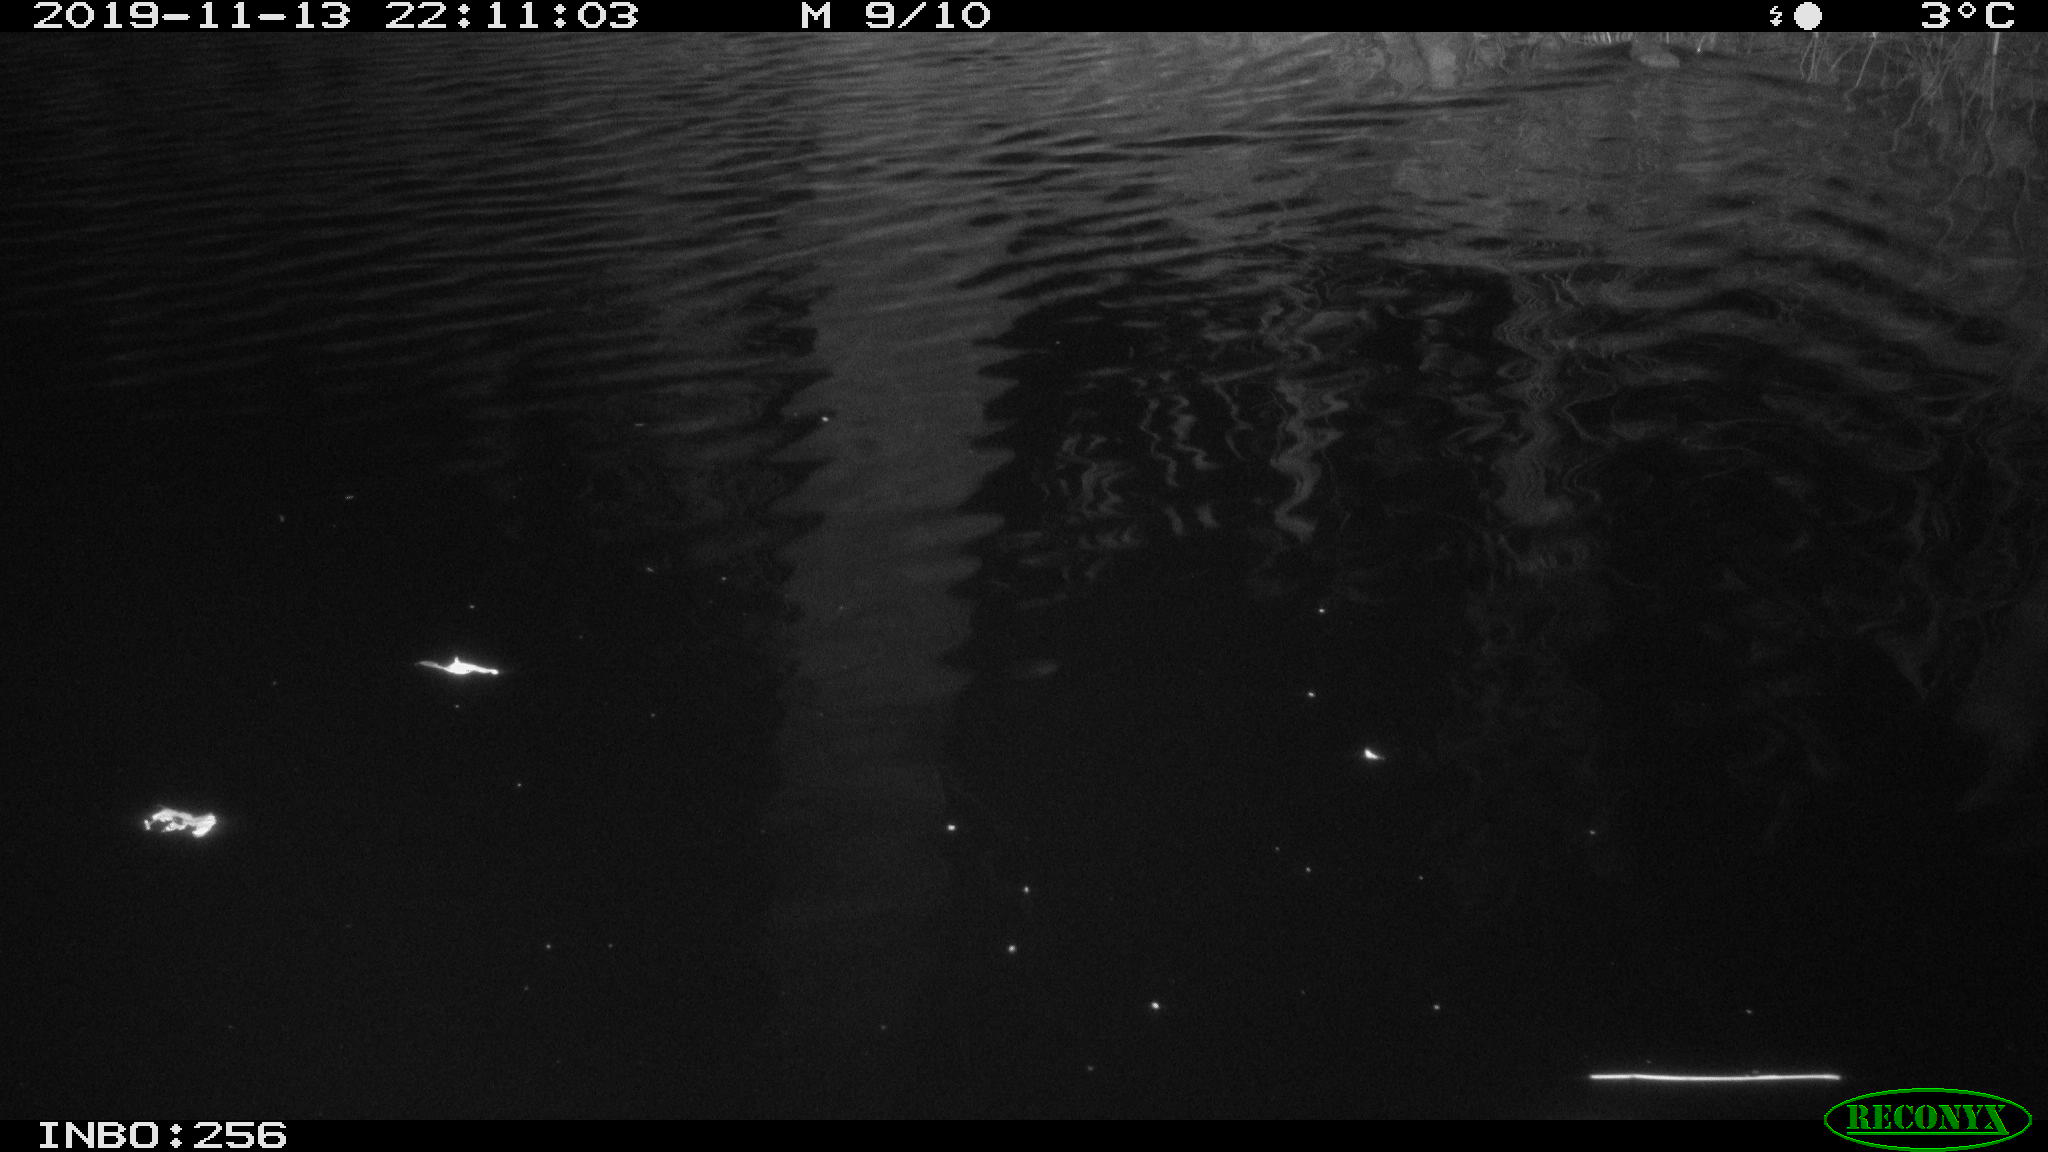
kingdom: Animalia
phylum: Chordata
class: Mammalia
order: Rodentia
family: Muridae
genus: Rattus
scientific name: Rattus norvegicus
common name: Brown rat
